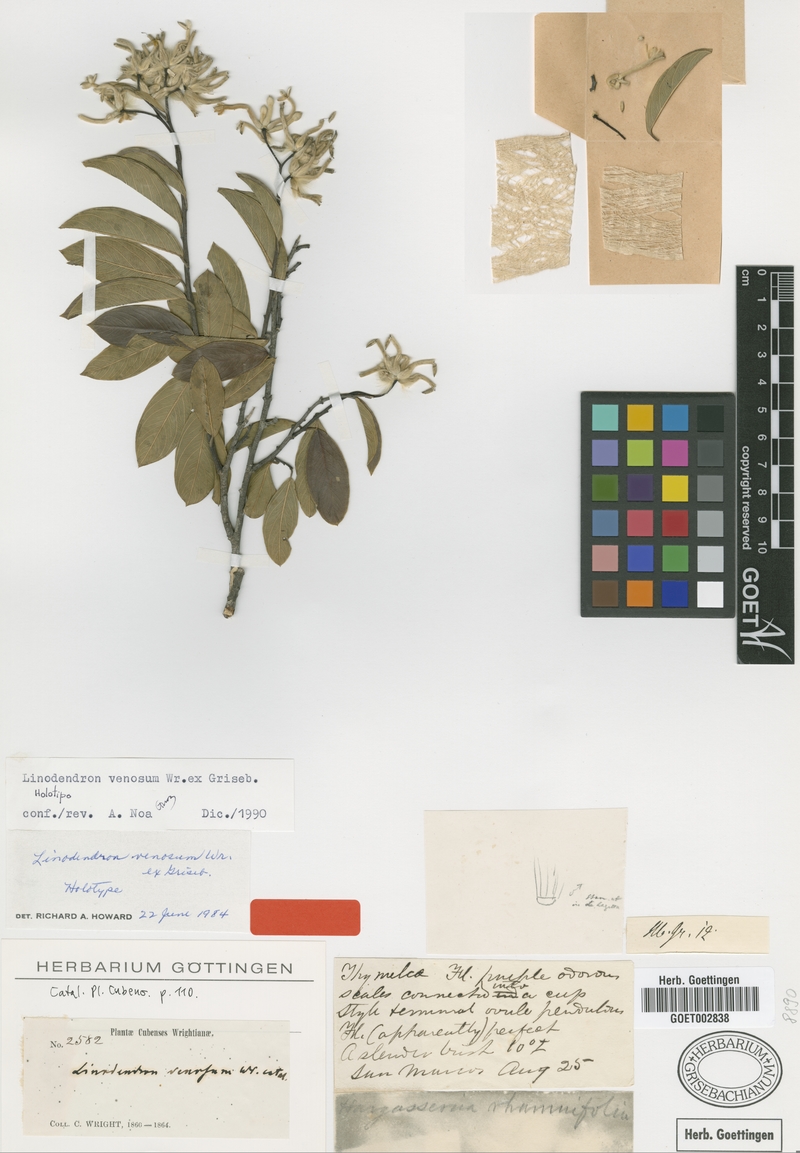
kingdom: Plantae
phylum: Tracheophyta
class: Magnoliopsida
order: Malvales
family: Thymelaeaceae
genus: Linodendron
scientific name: Linodendron venosum
